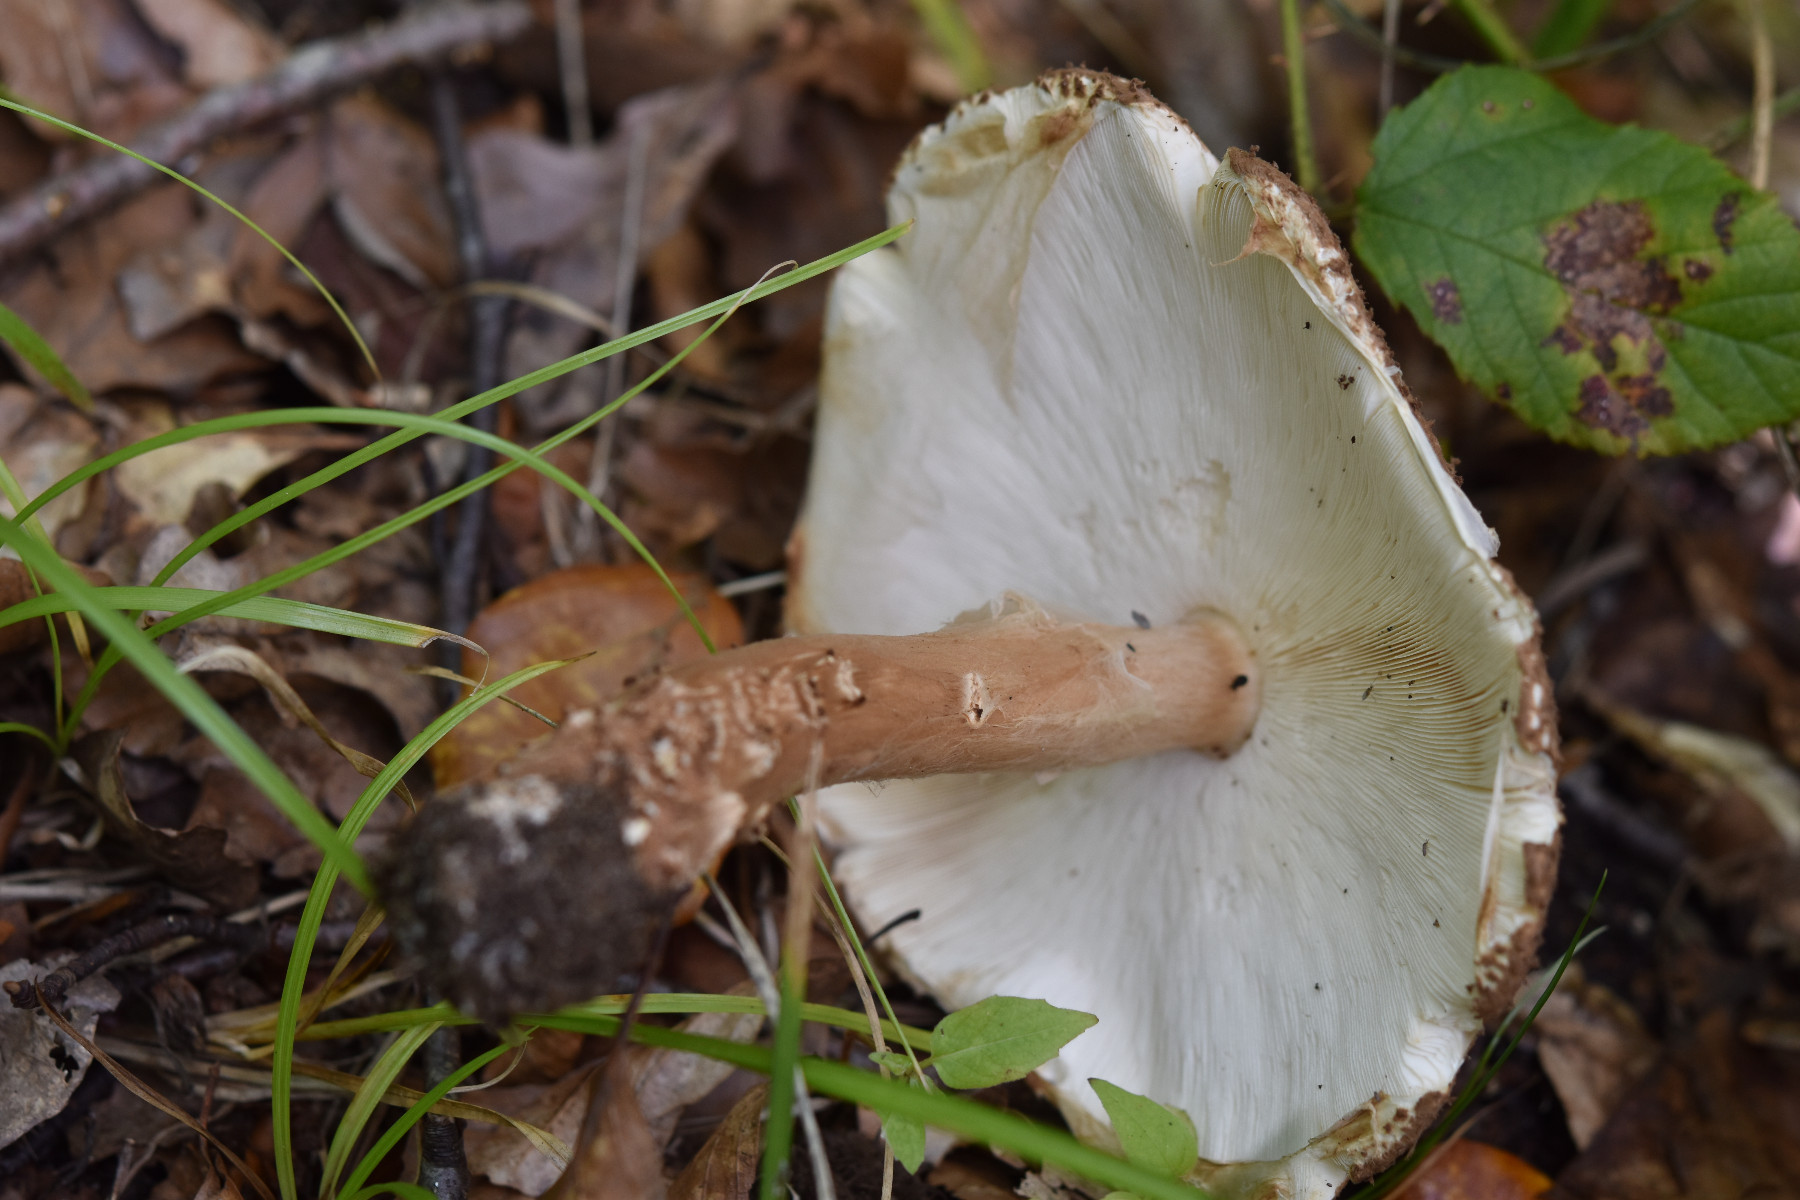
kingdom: Fungi
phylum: Basidiomycota
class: Agaricomycetes
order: Agaricales
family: Agaricaceae
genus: Echinoderma
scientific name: Echinoderma asperum
